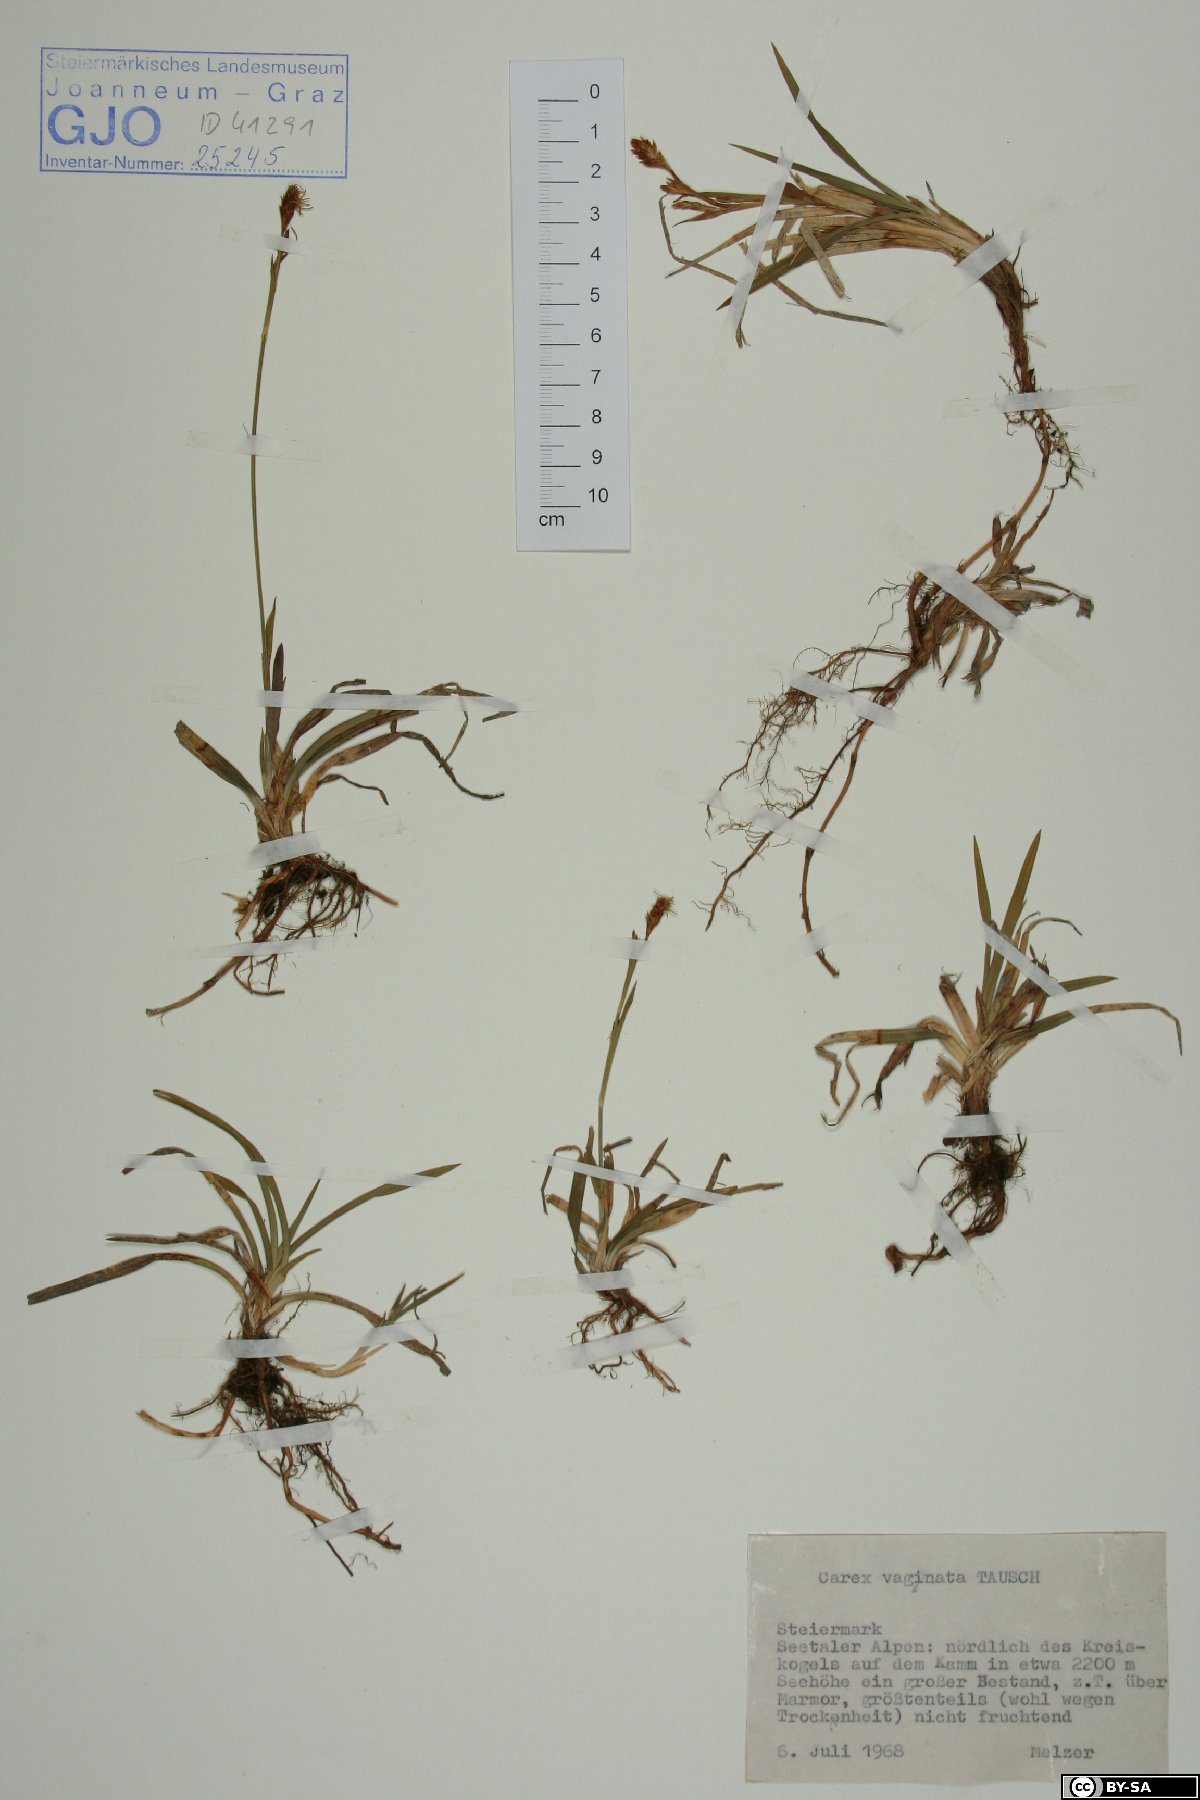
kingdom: Plantae
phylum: Tracheophyta
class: Liliopsida
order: Poales
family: Cyperaceae
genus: Carex
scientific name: Carex vaginata
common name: Sheathed sedge
